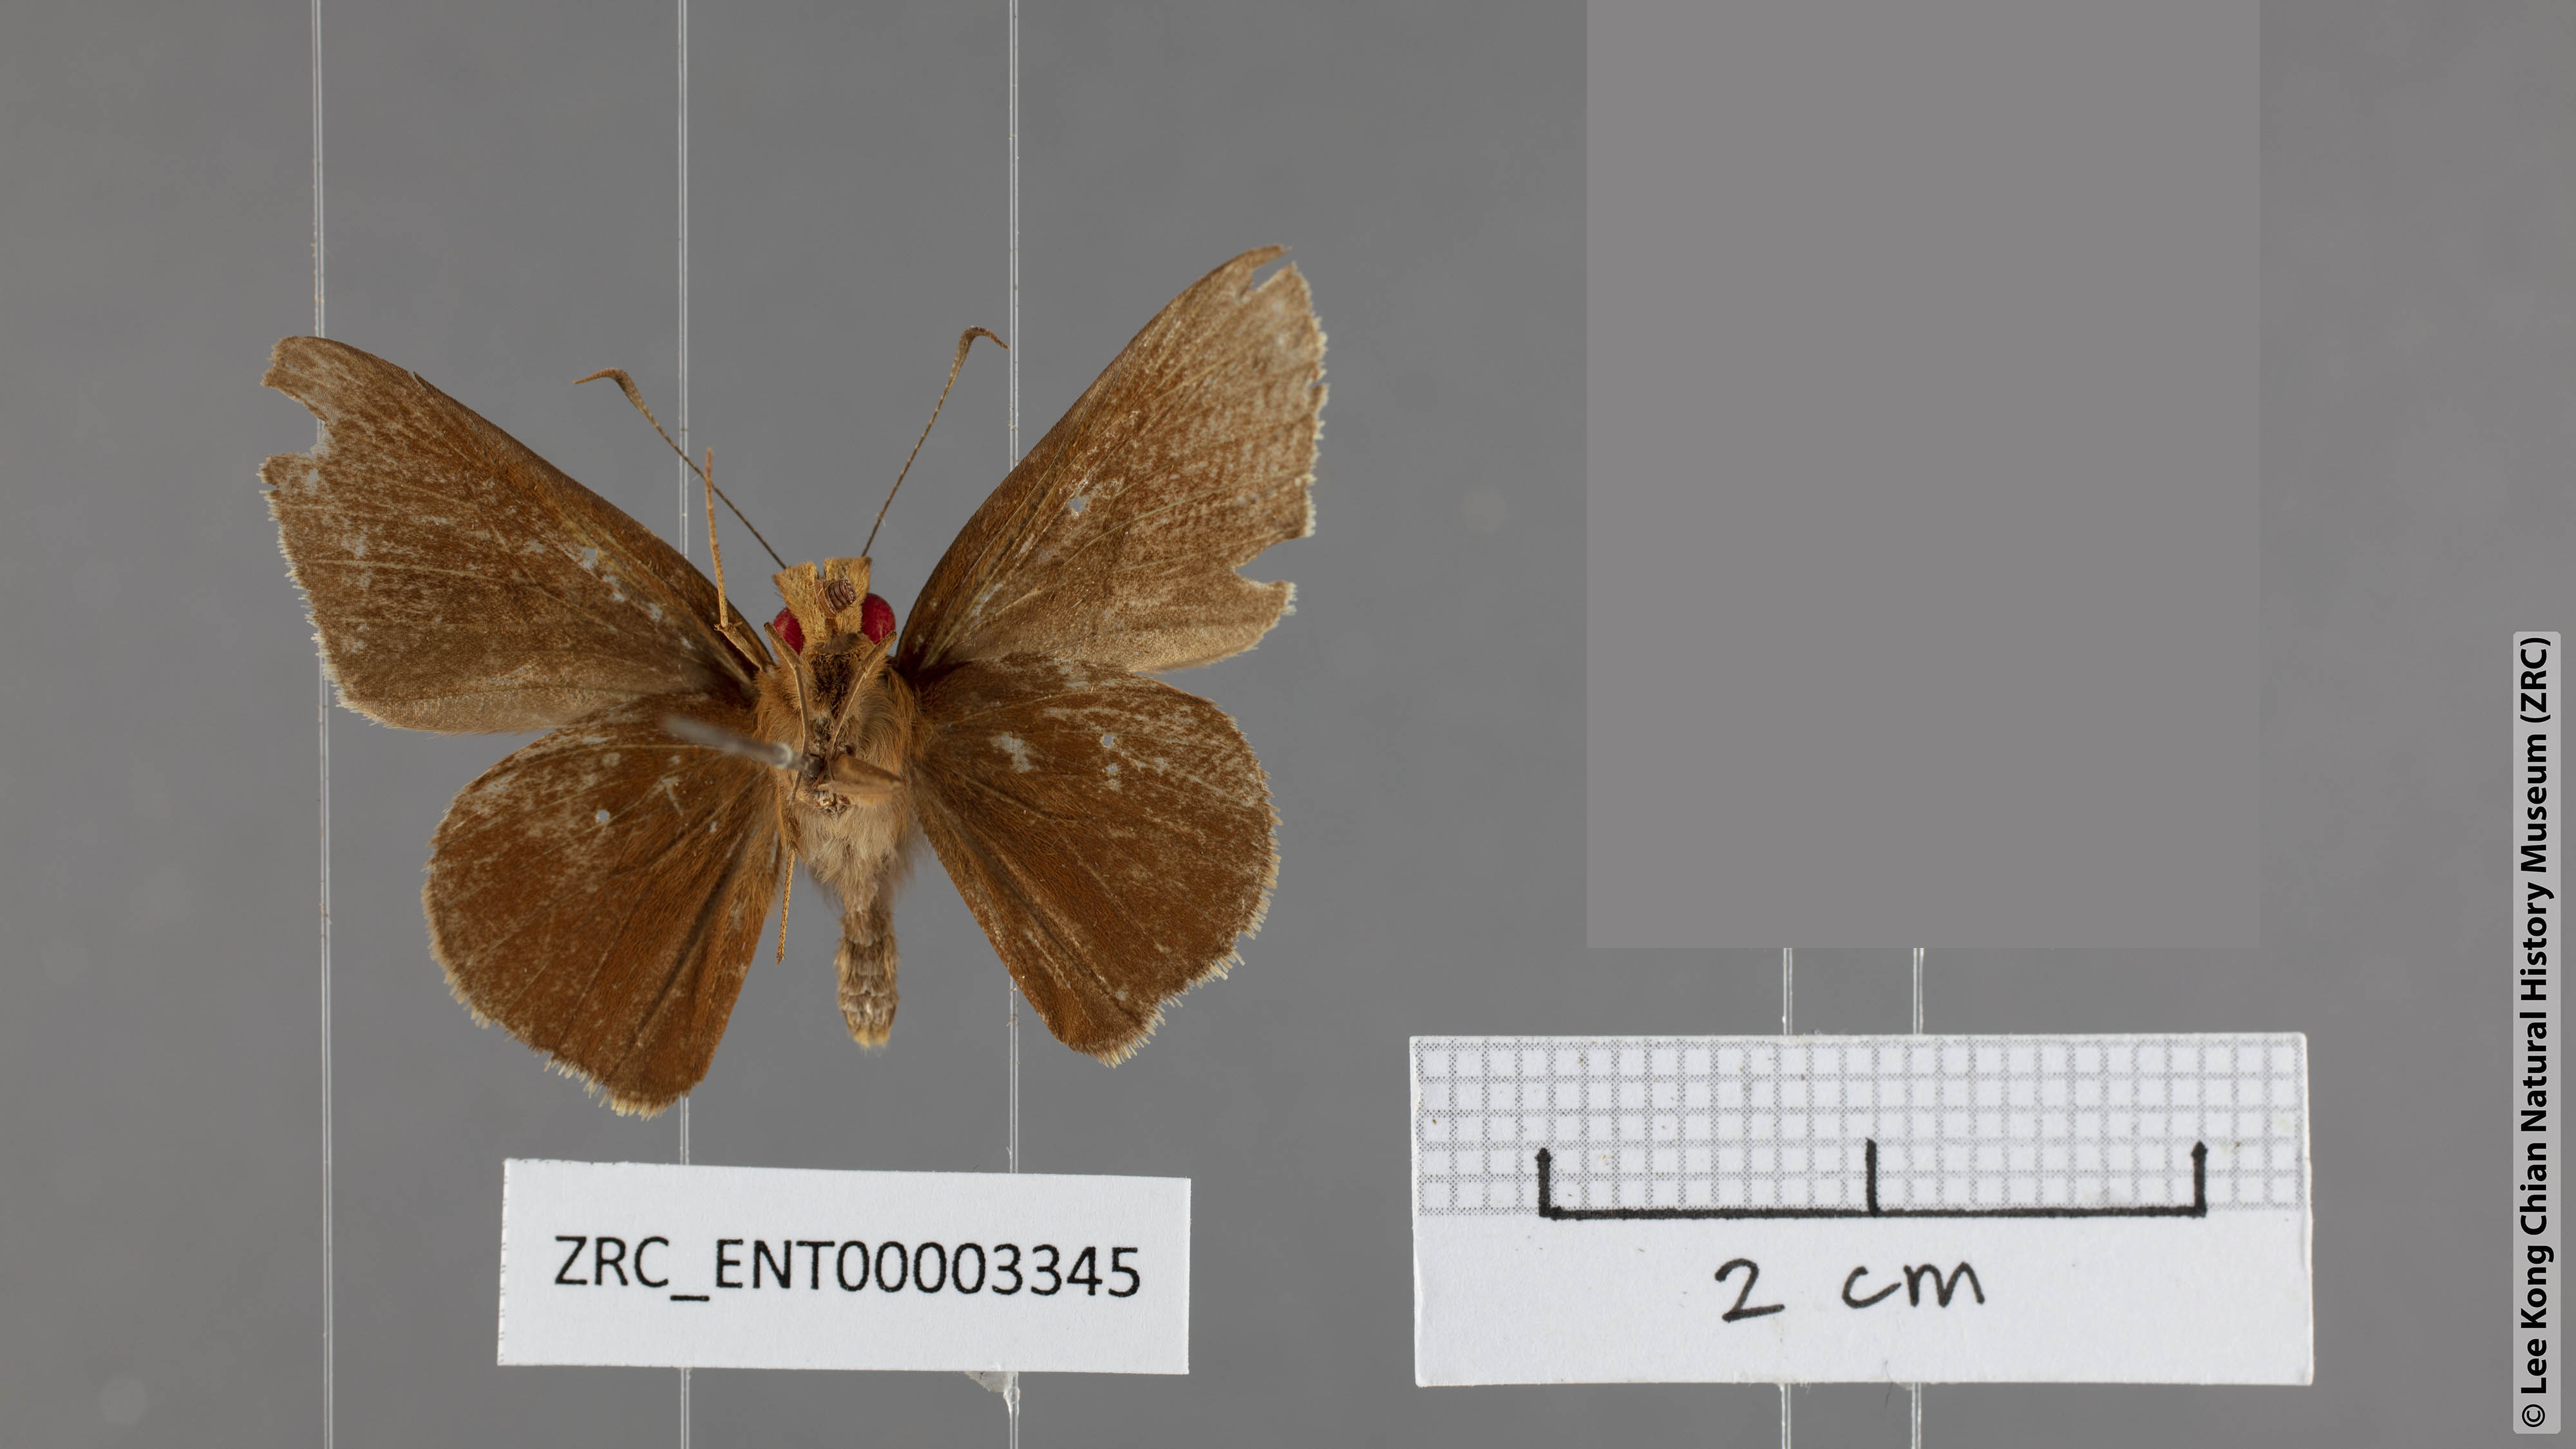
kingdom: Animalia
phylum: Arthropoda
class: Insecta
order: Lepidoptera
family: Hesperiidae
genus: Matapa
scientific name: Matapa sasivarna
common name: Black-veined redeye
